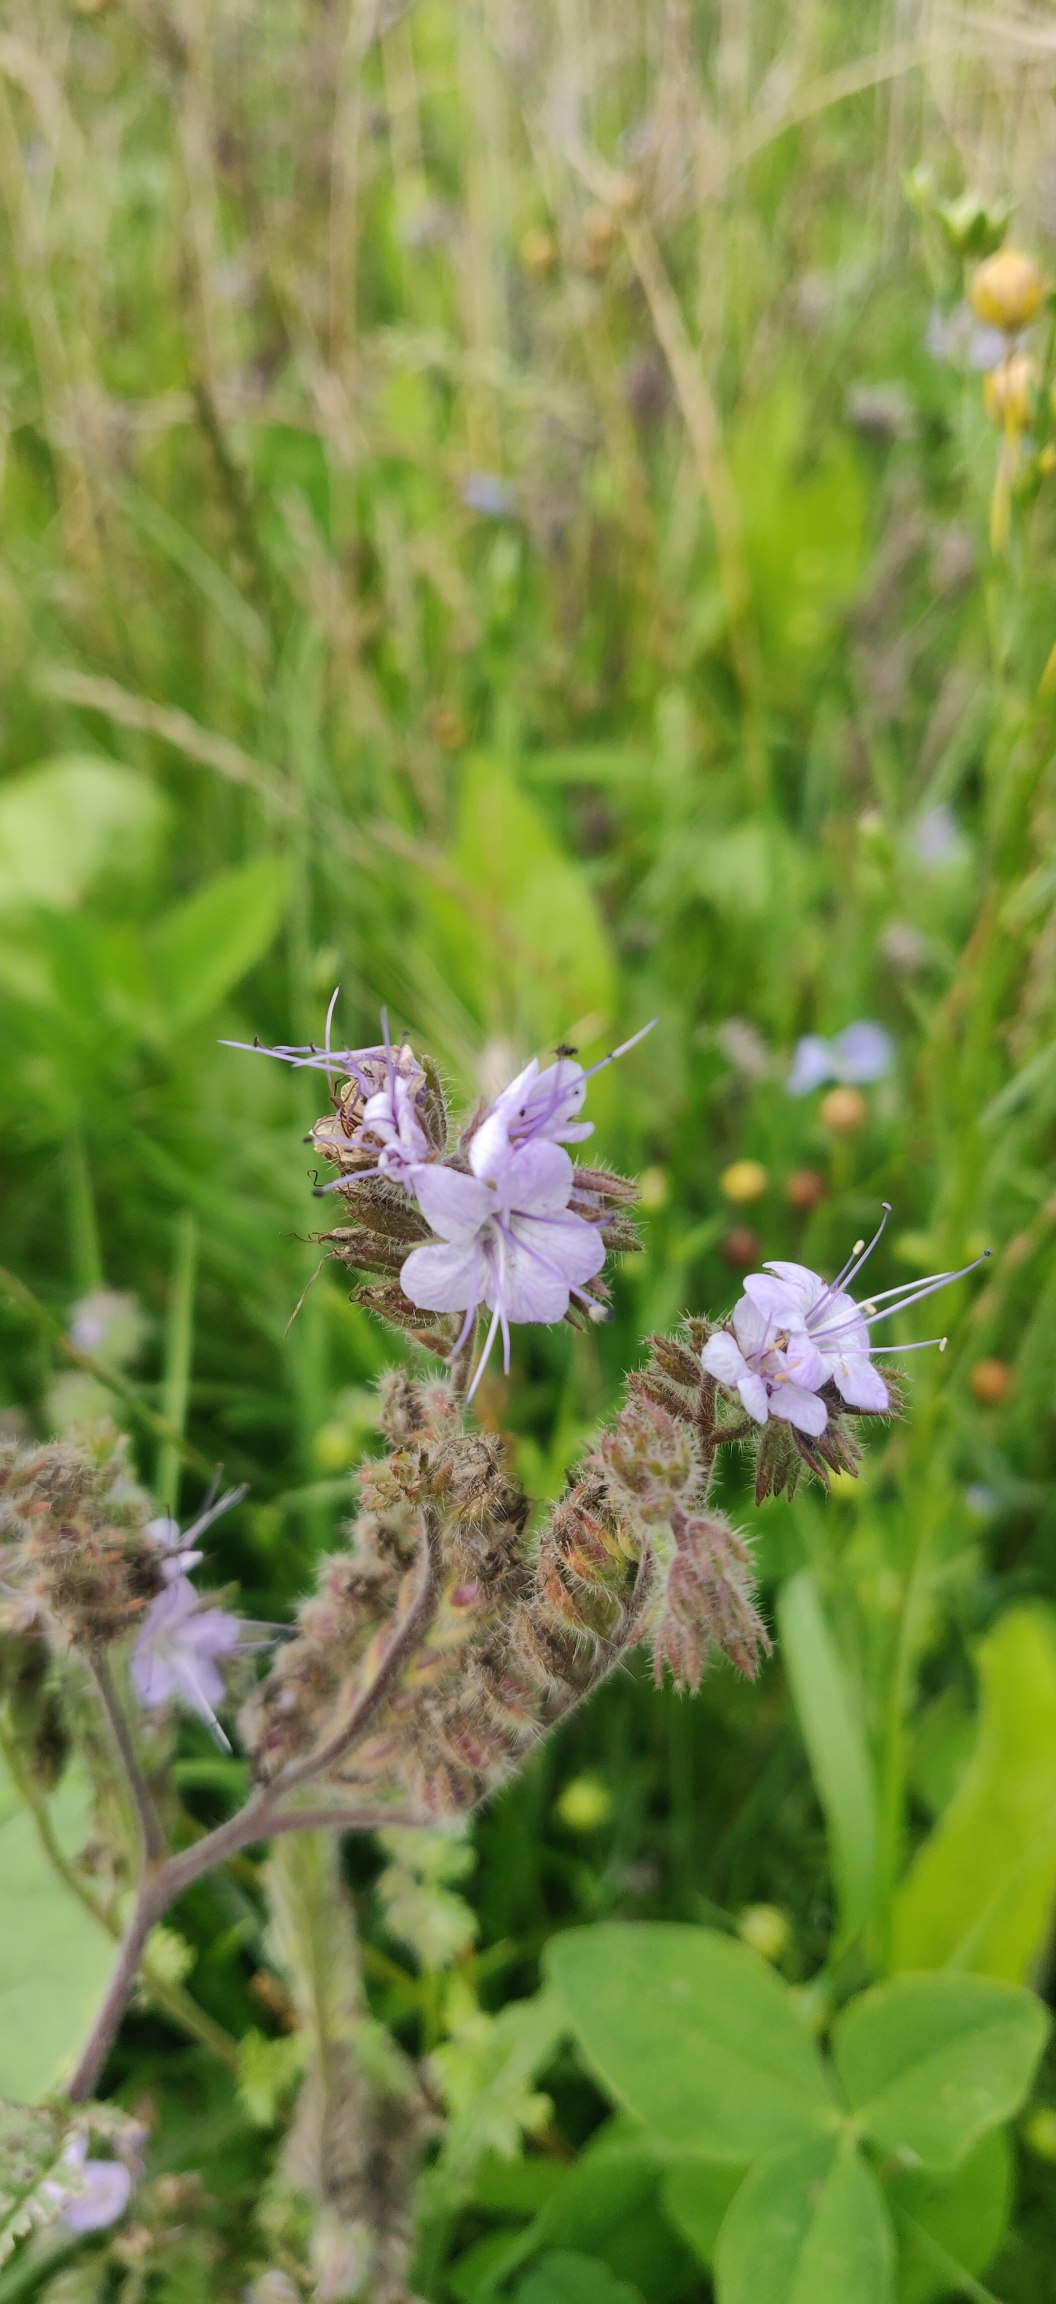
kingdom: Plantae
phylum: Tracheophyta
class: Magnoliopsida
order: Boraginales
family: Hydrophyllaceae
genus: Phacelia
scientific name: Phacelia tanacetifolia
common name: Honningurt
